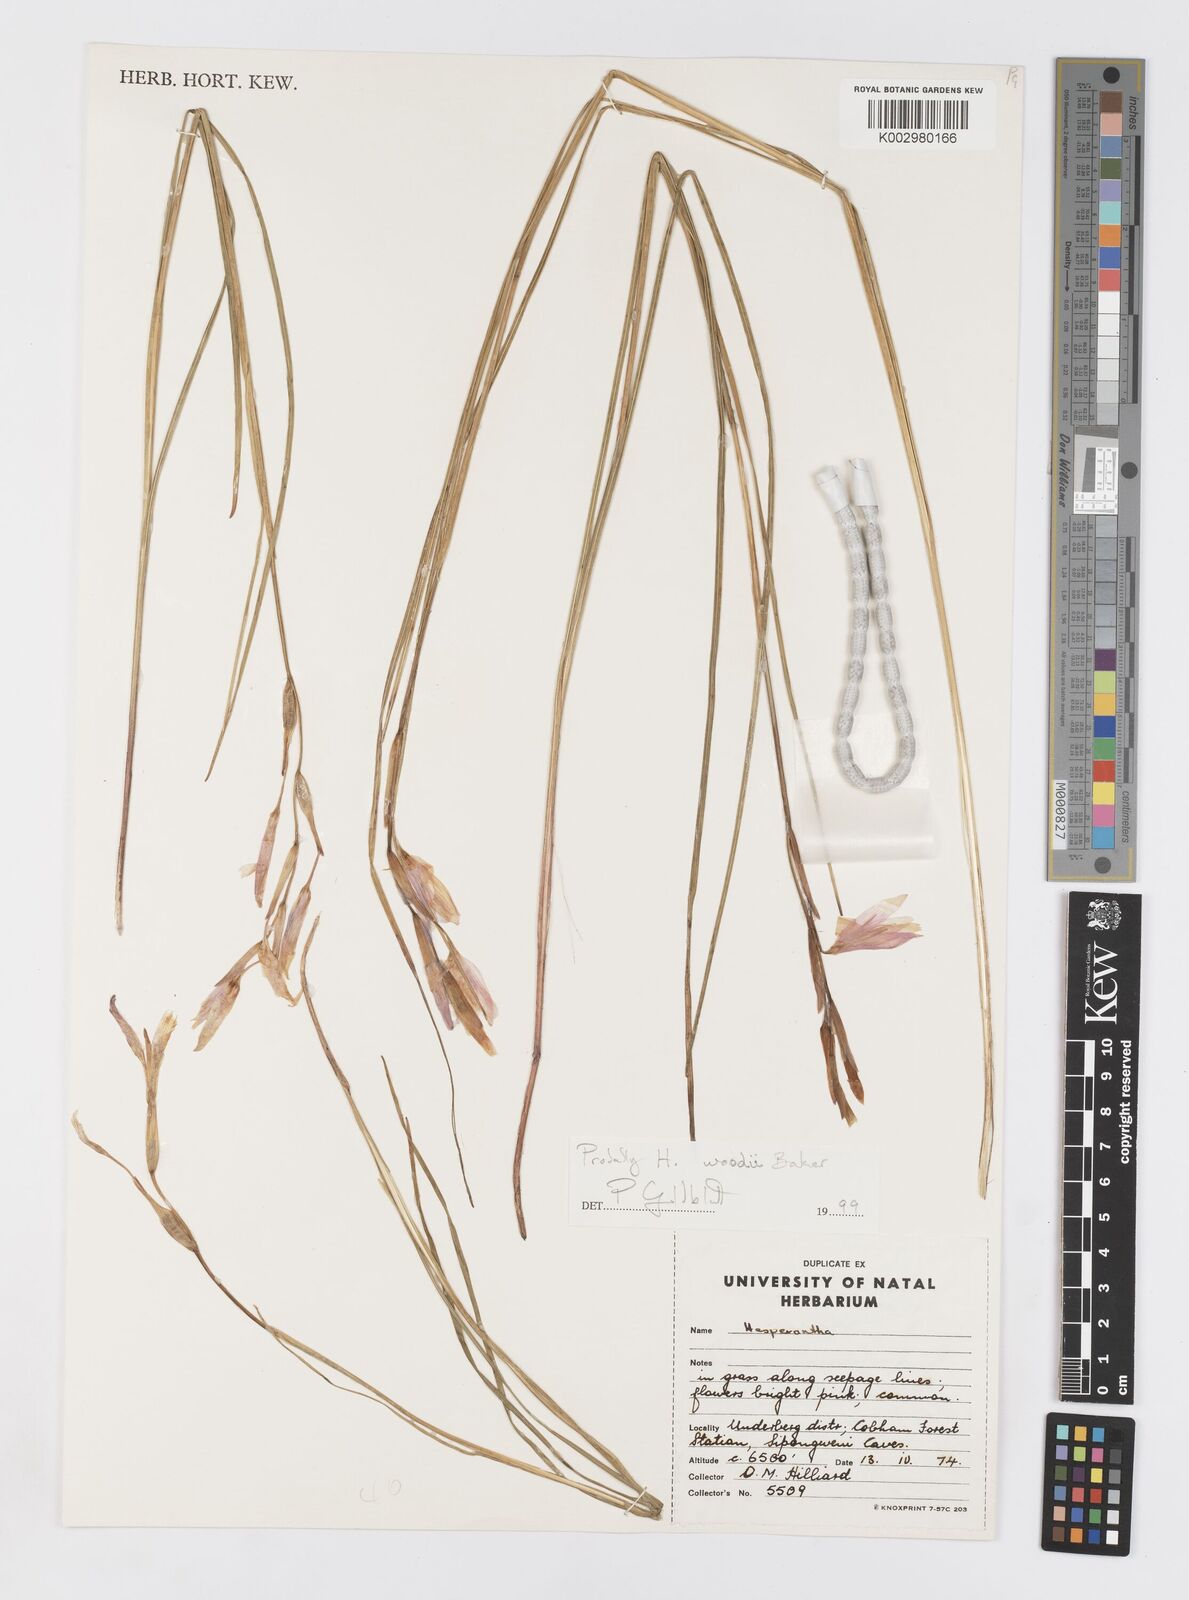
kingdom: Plantae
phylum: Tracheophyta
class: Liliopsida
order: Asparagales
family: Iridaceae
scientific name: Iridaceae
